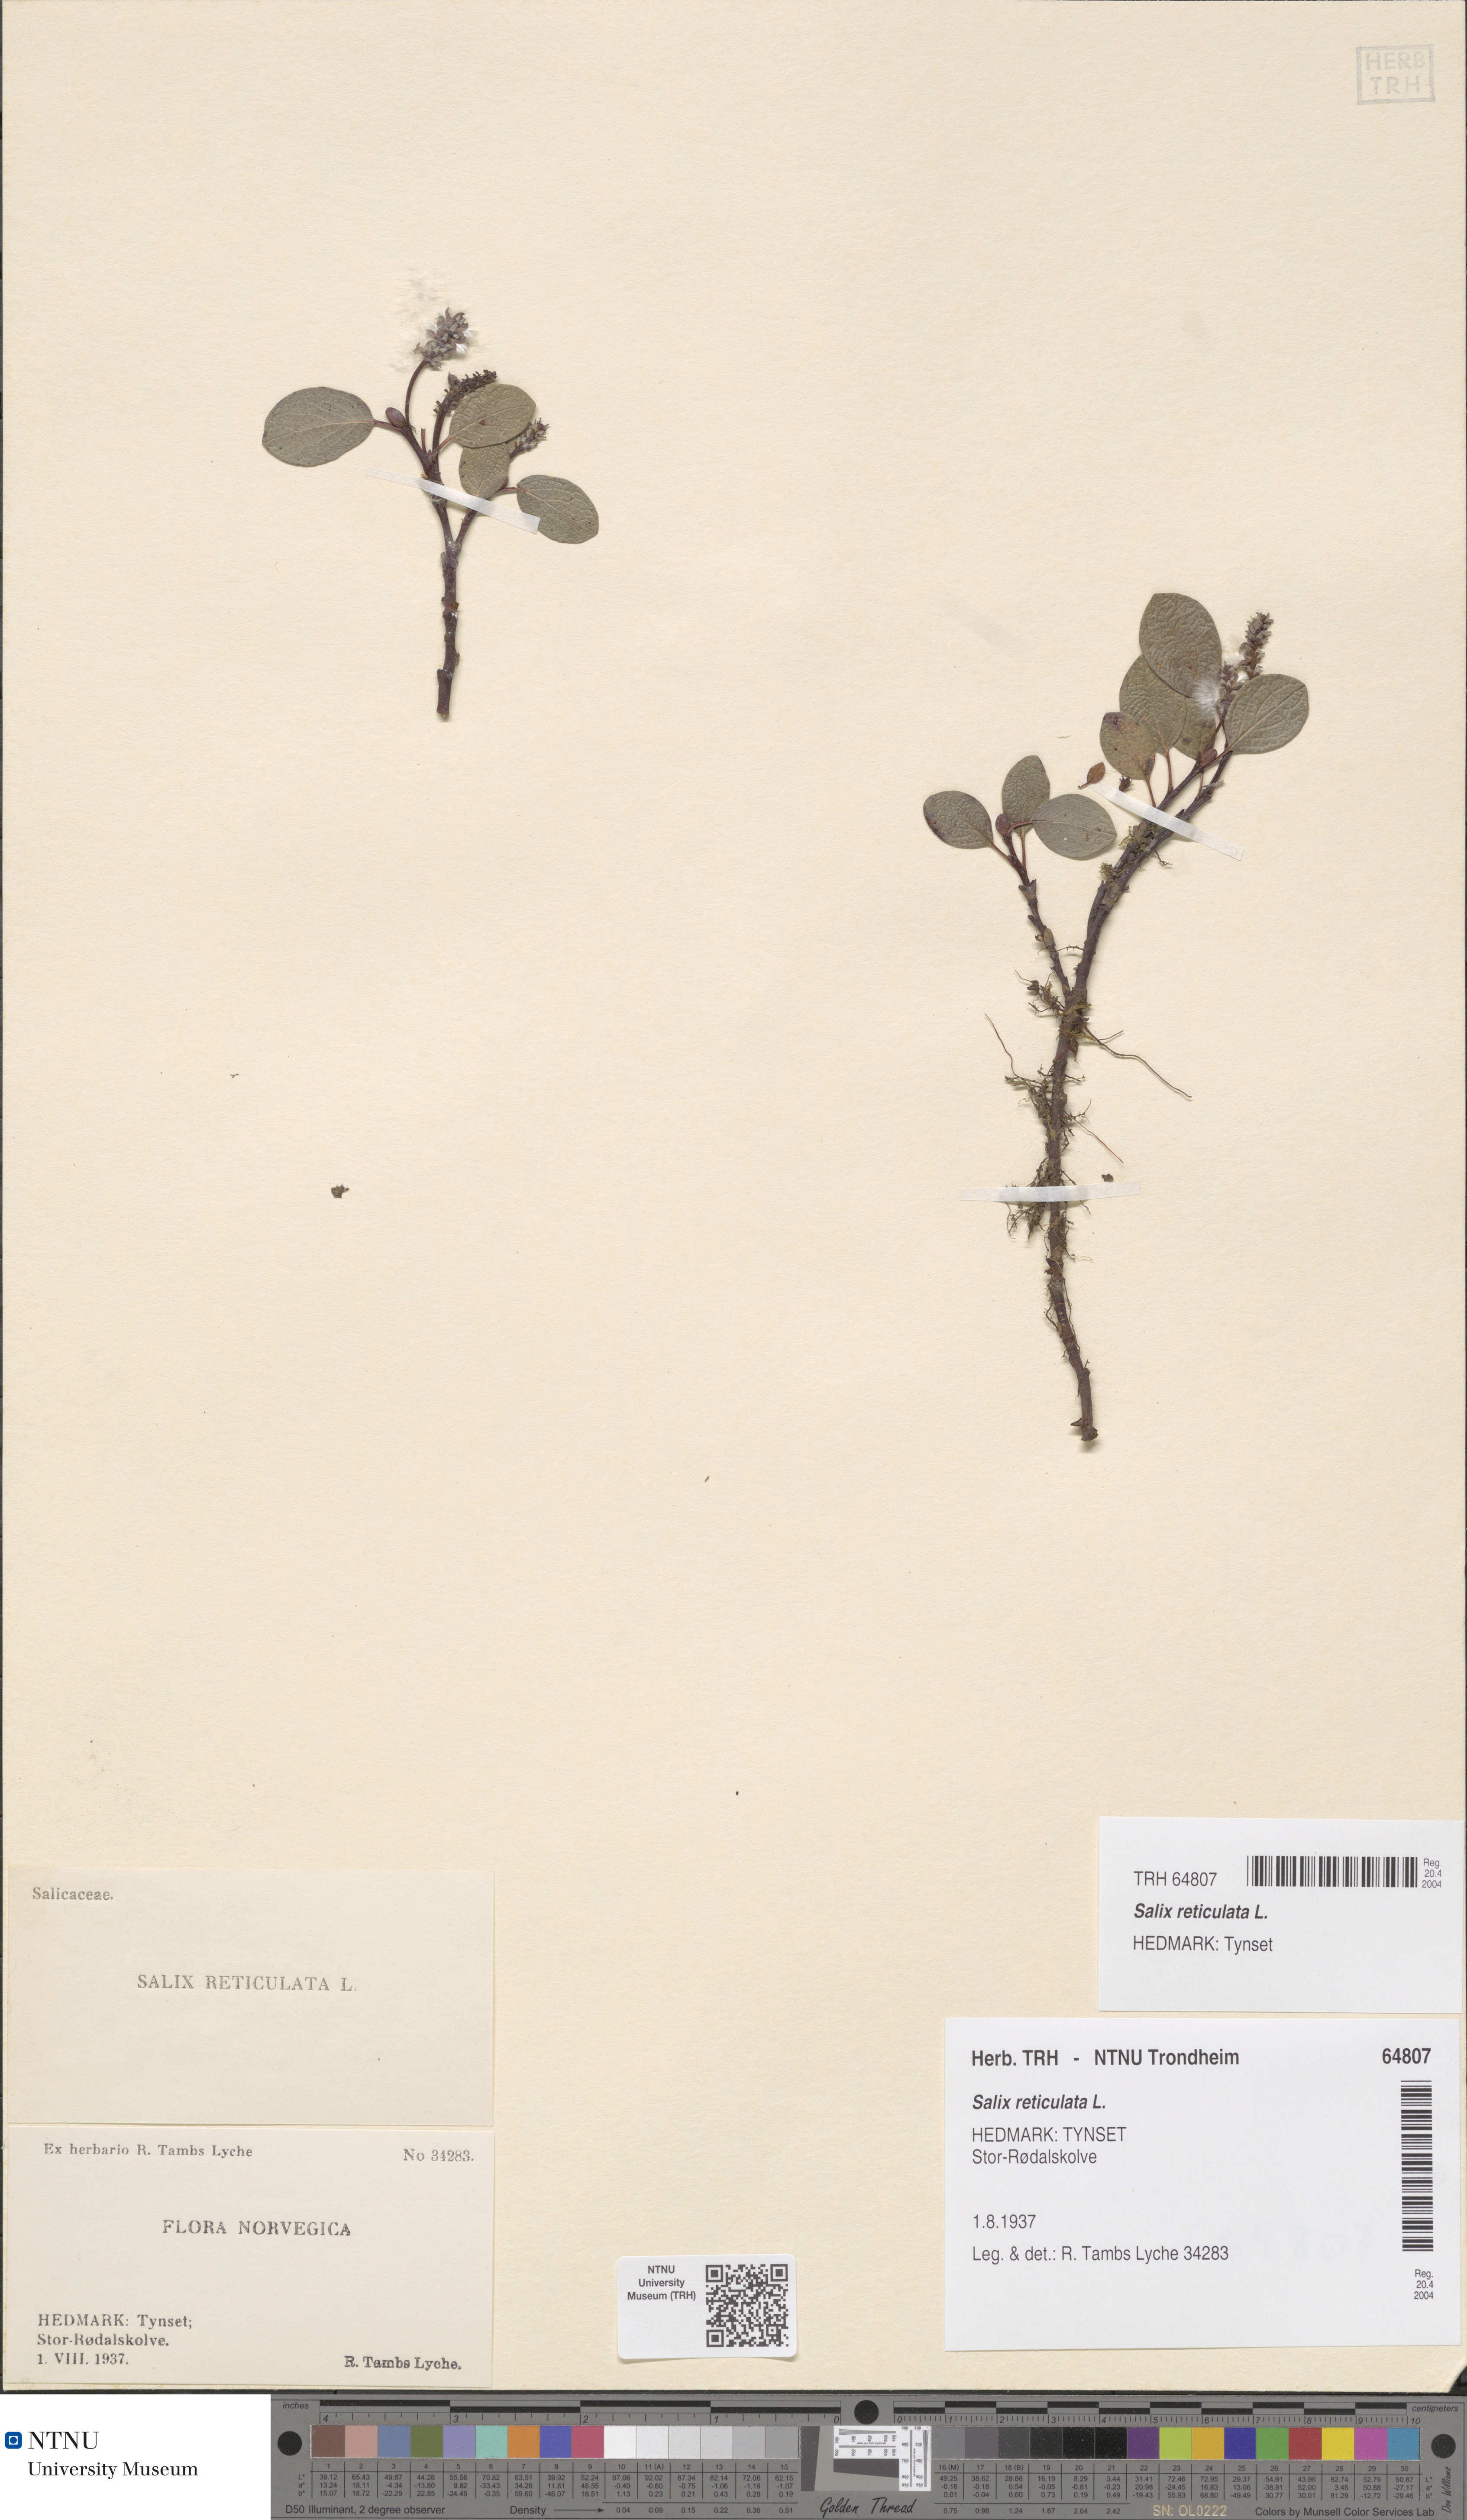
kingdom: Plantae
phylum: Tracheophyta
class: Magnoliopsida
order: Malpighiales
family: Salicaceae
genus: Salix
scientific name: Salix reticulata
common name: Net-leaved willow
